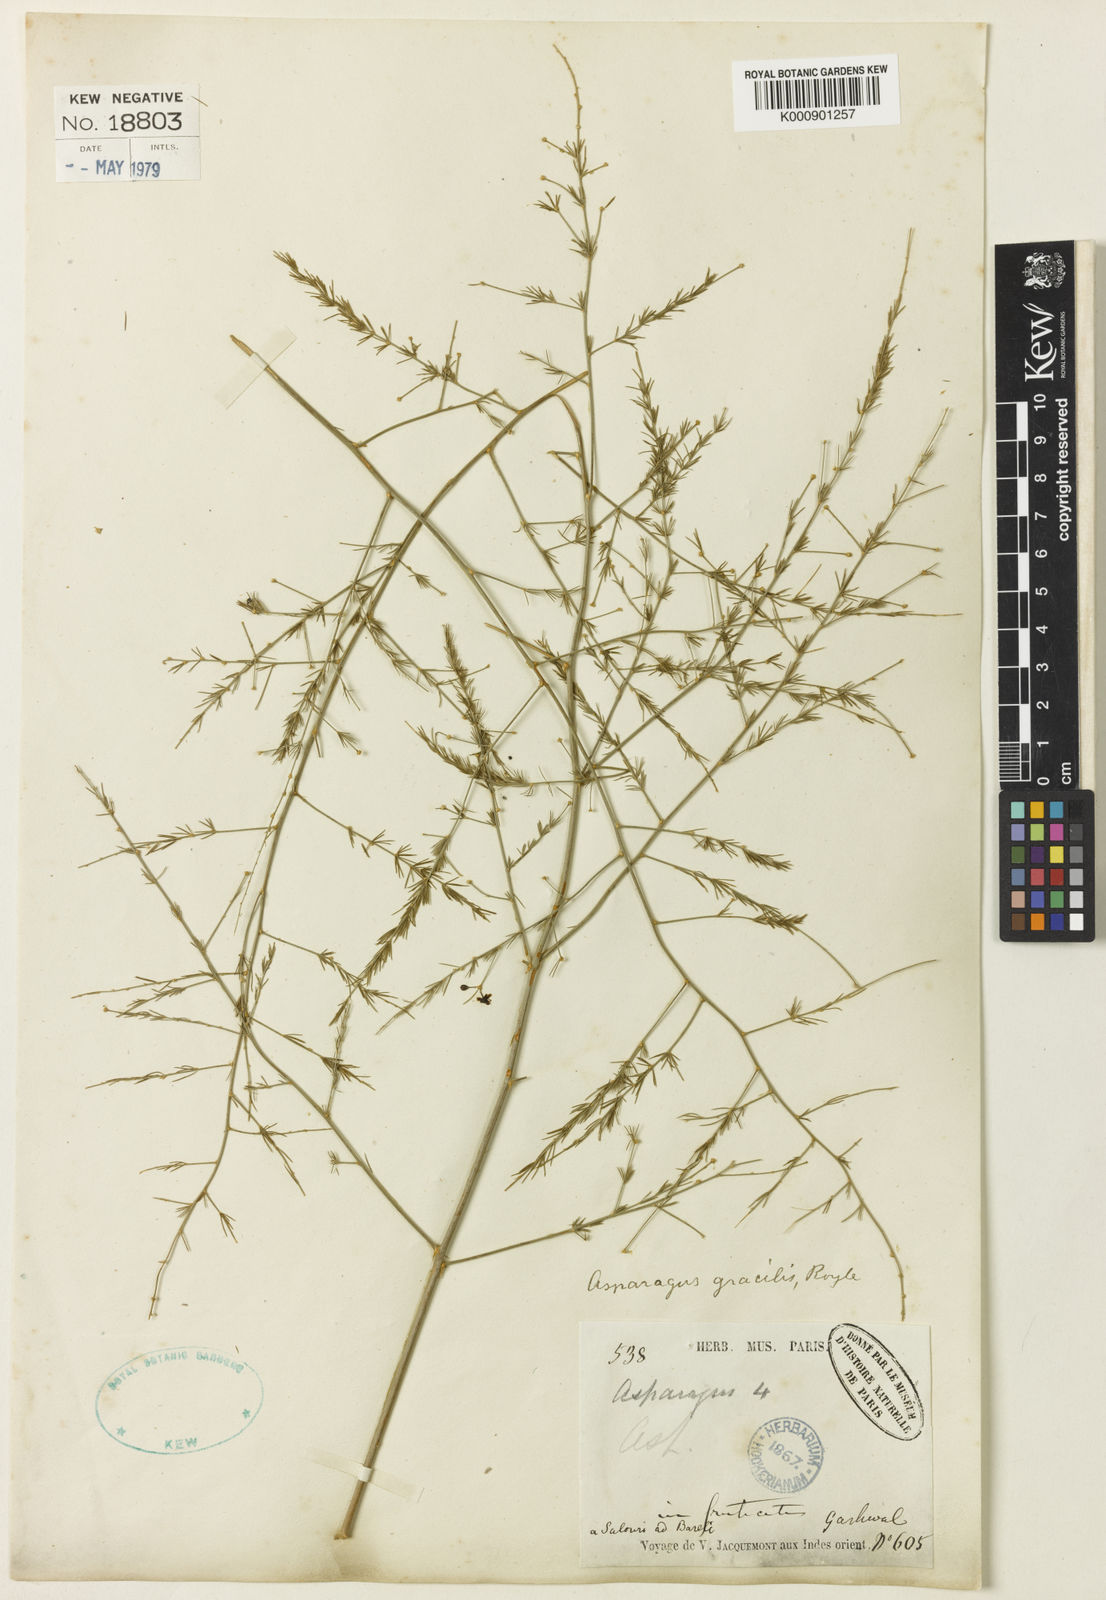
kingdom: Plantae
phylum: Tracheophyta
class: Liliopsida
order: Asparagales
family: Asparagaceae
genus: Asparagus
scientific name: Asparagus
